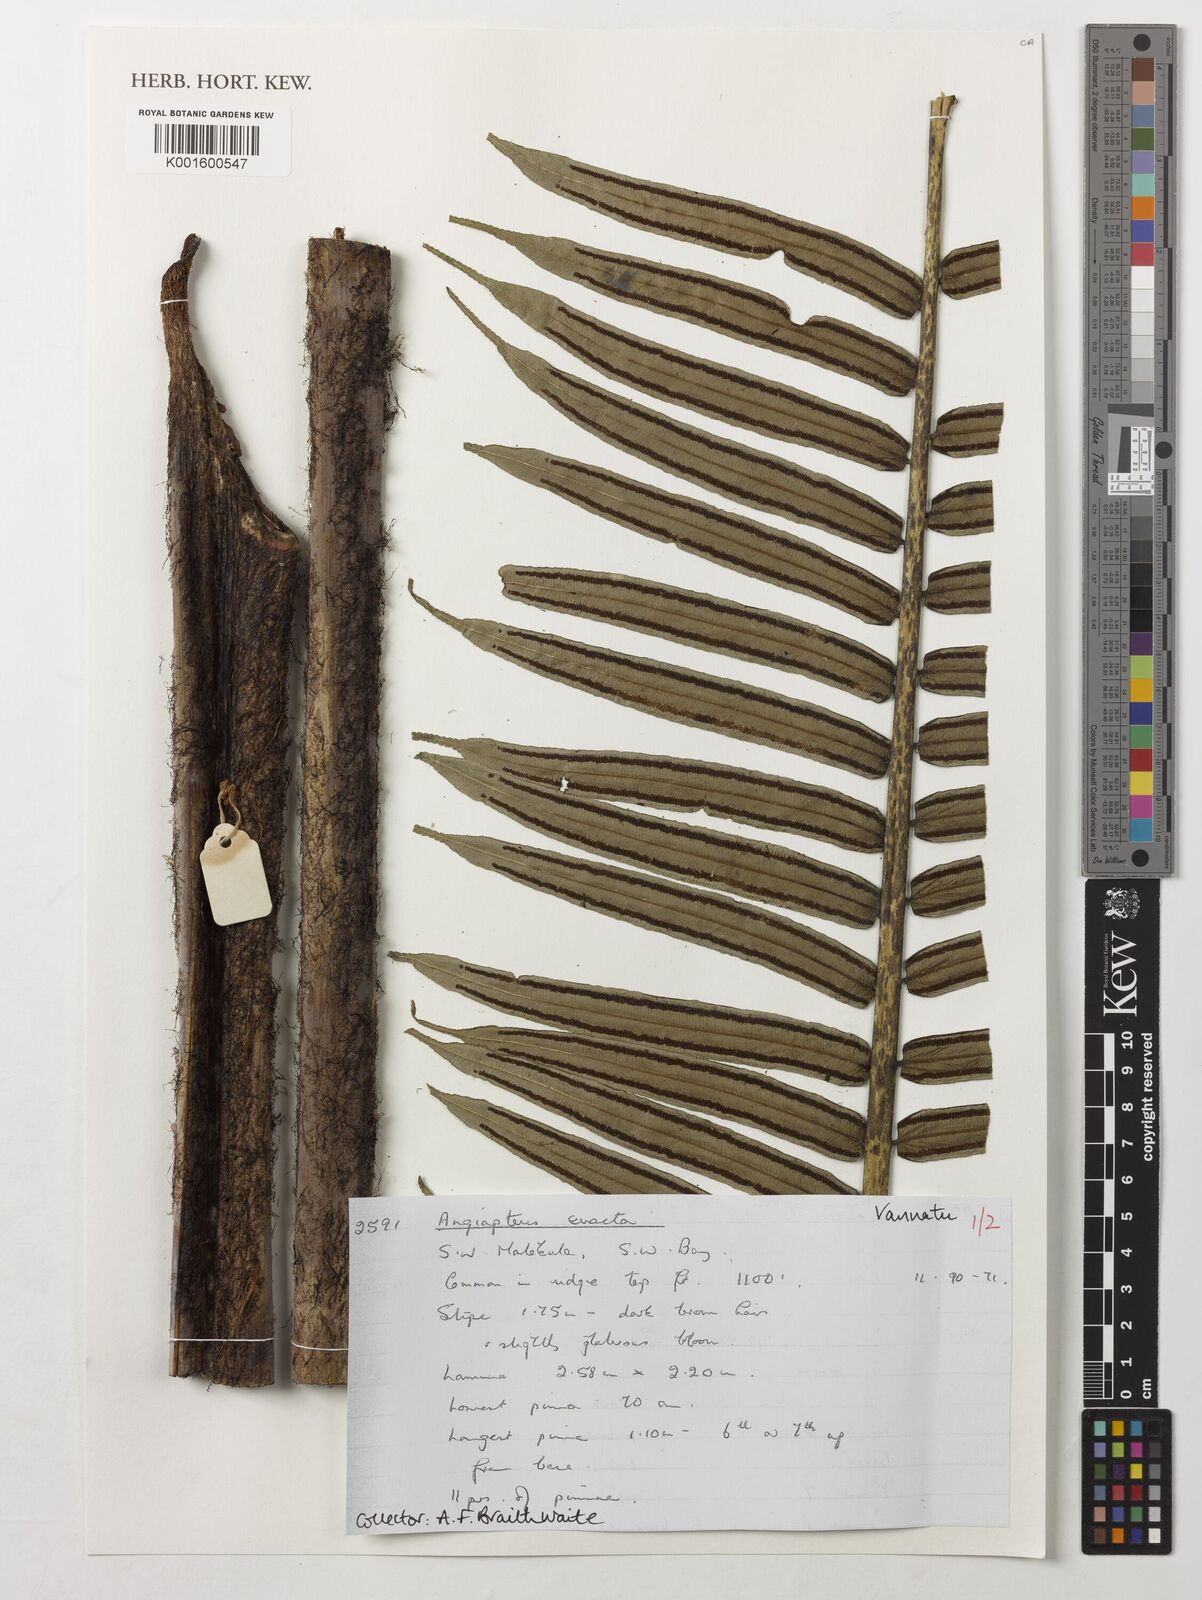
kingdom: Plantae
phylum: Tracheophyta
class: Polypodiopsida
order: Marattiales
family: Marattiaceae
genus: Angiopteris
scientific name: Angiopteris evecta
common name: Mule's-foot fern
